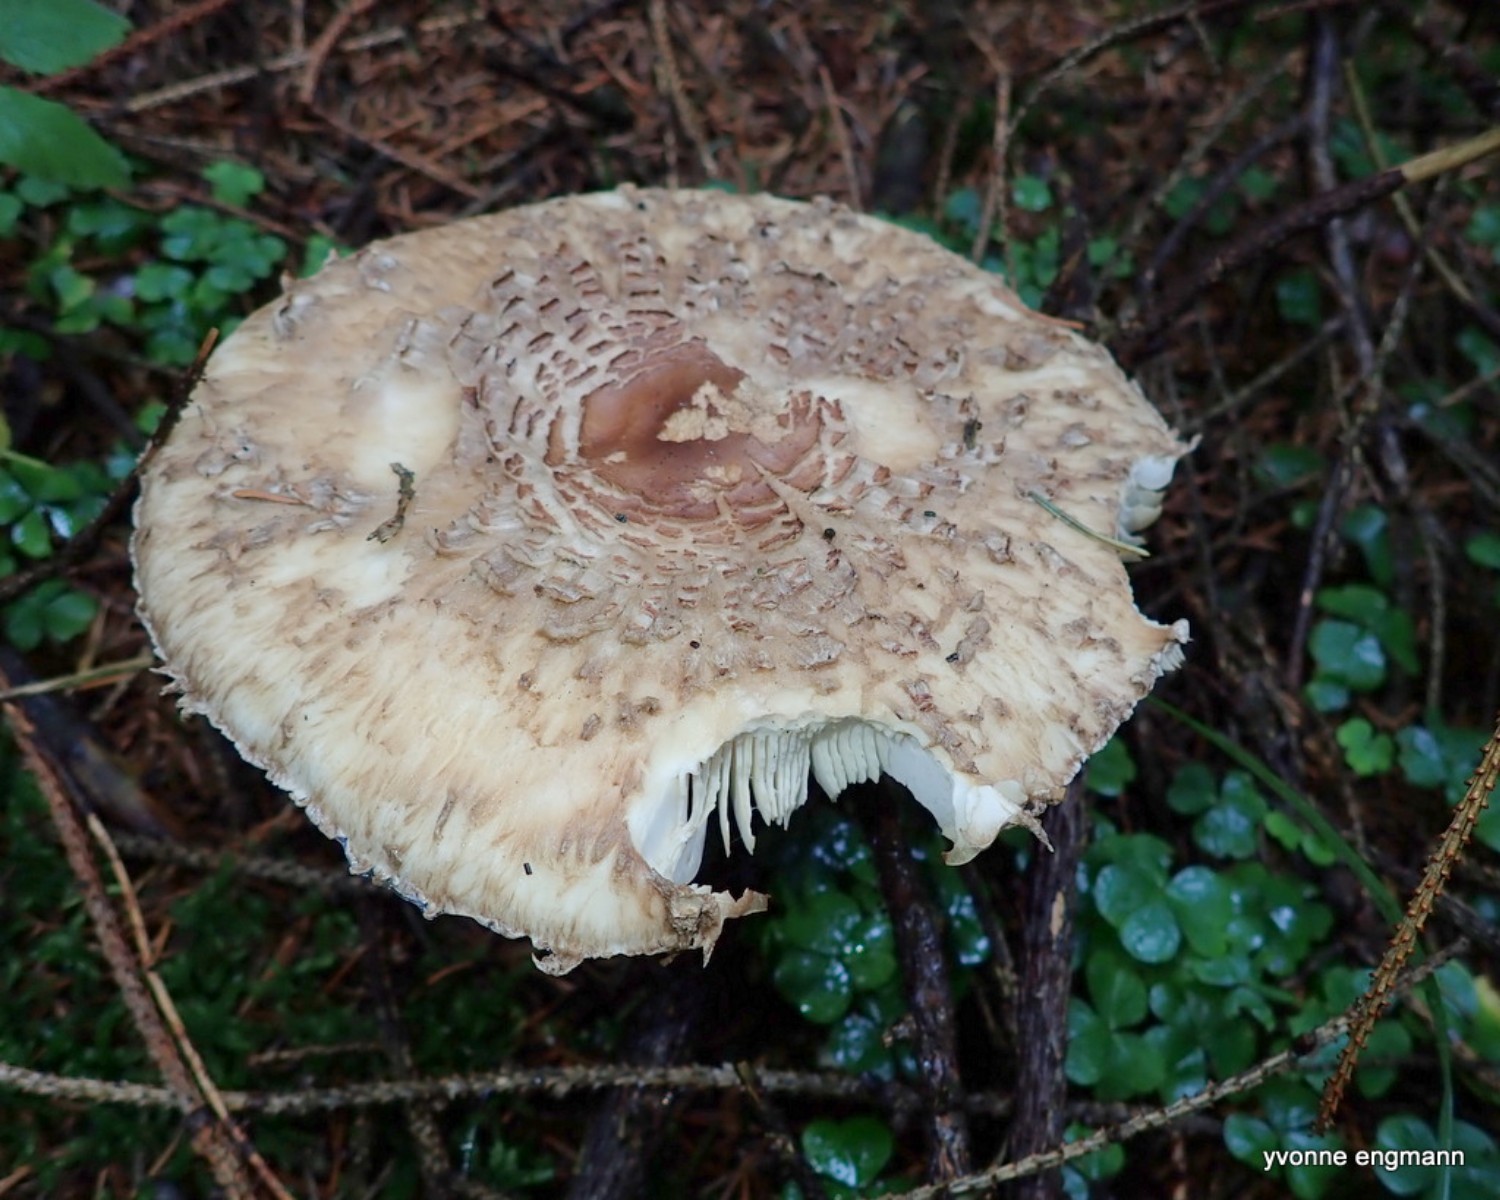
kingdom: Fungi
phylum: Basidiomycota
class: Agaricomycetes
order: Agaricales
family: Agaricaceae
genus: Chlorophyllum
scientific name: Chlorophyllum olivieri
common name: almindelig rabarberhat
